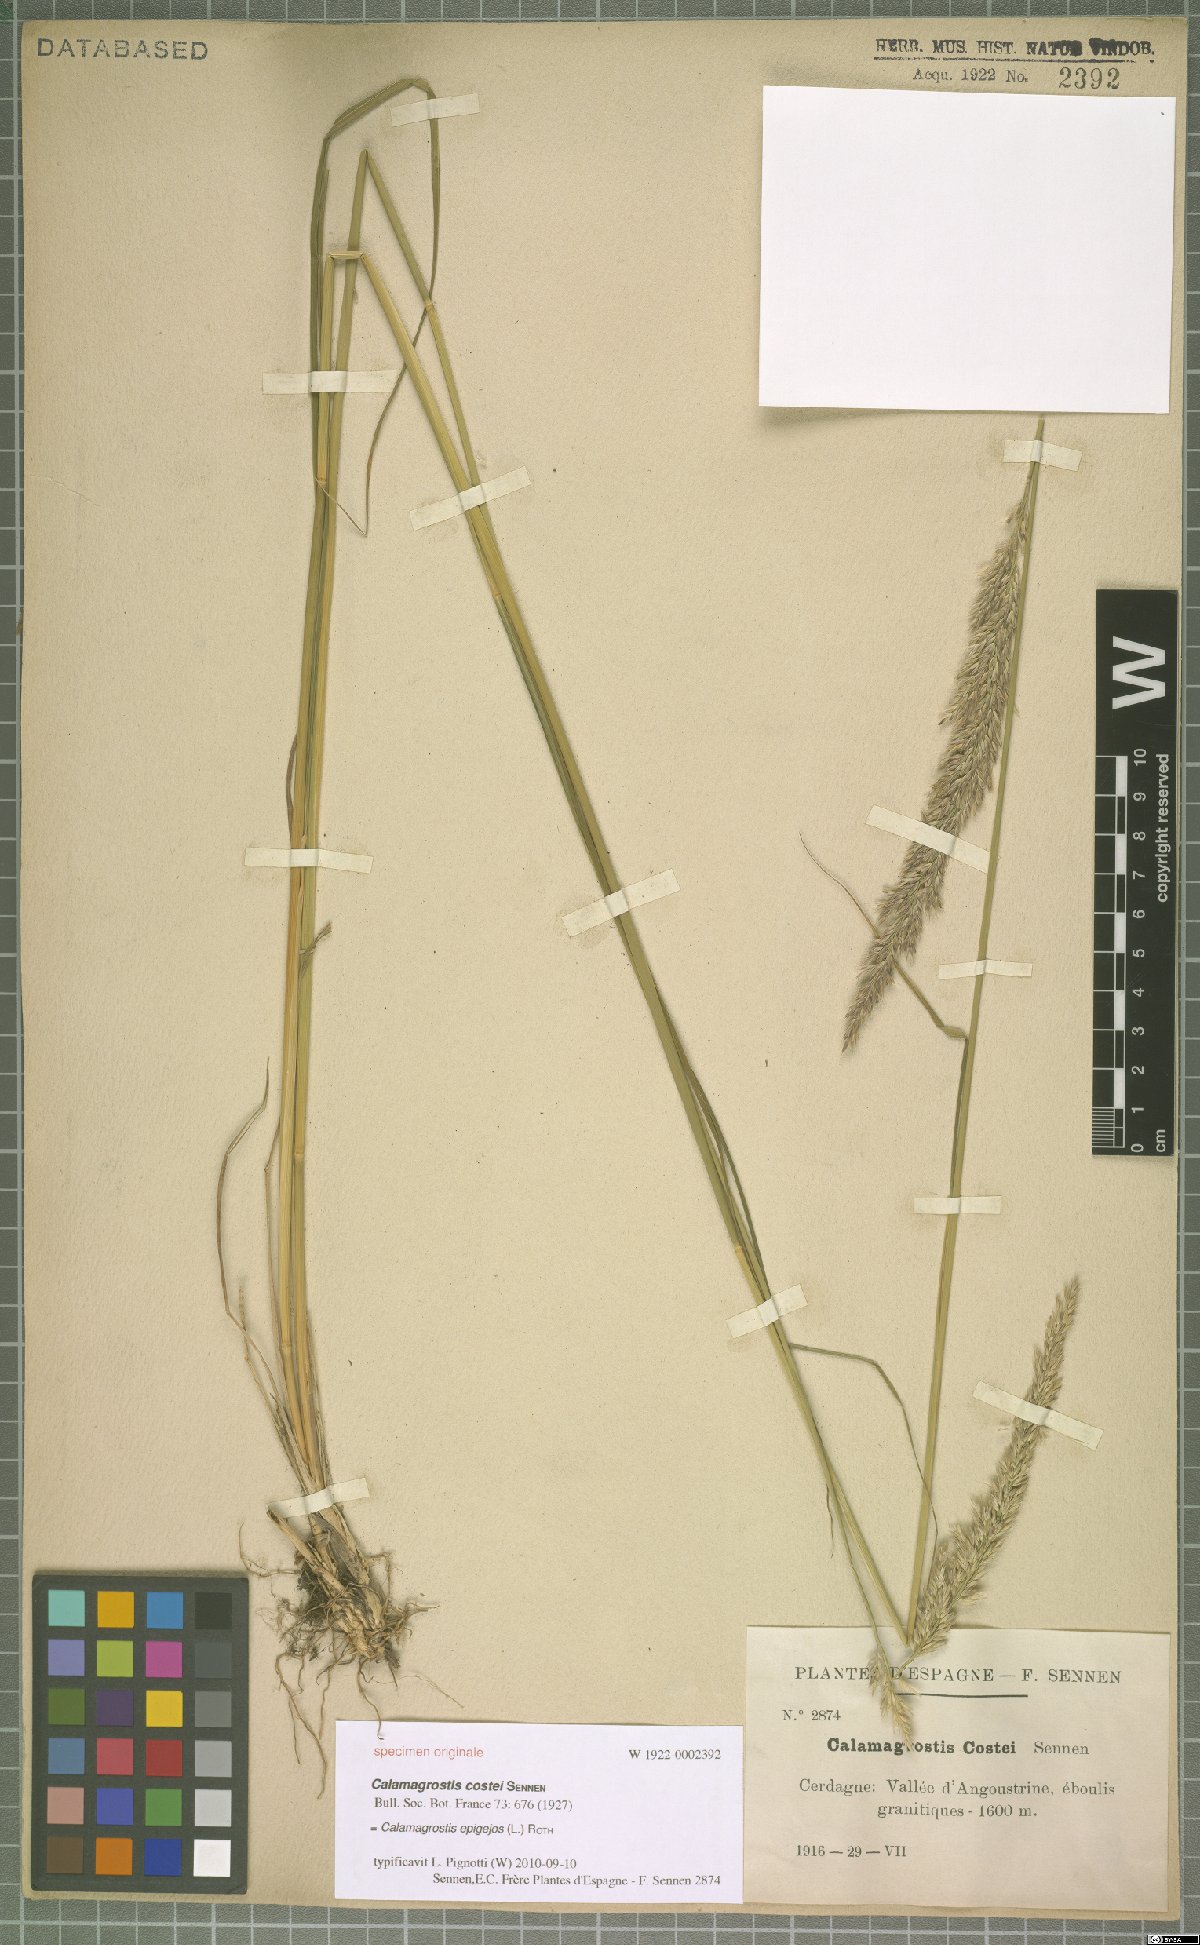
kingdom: Plantae
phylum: Tracheophyta
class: Liliopsida
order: Poales
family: Poaceae
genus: Calamagrostis
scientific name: Calamagrostis epigejos
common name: Wood small-reed
